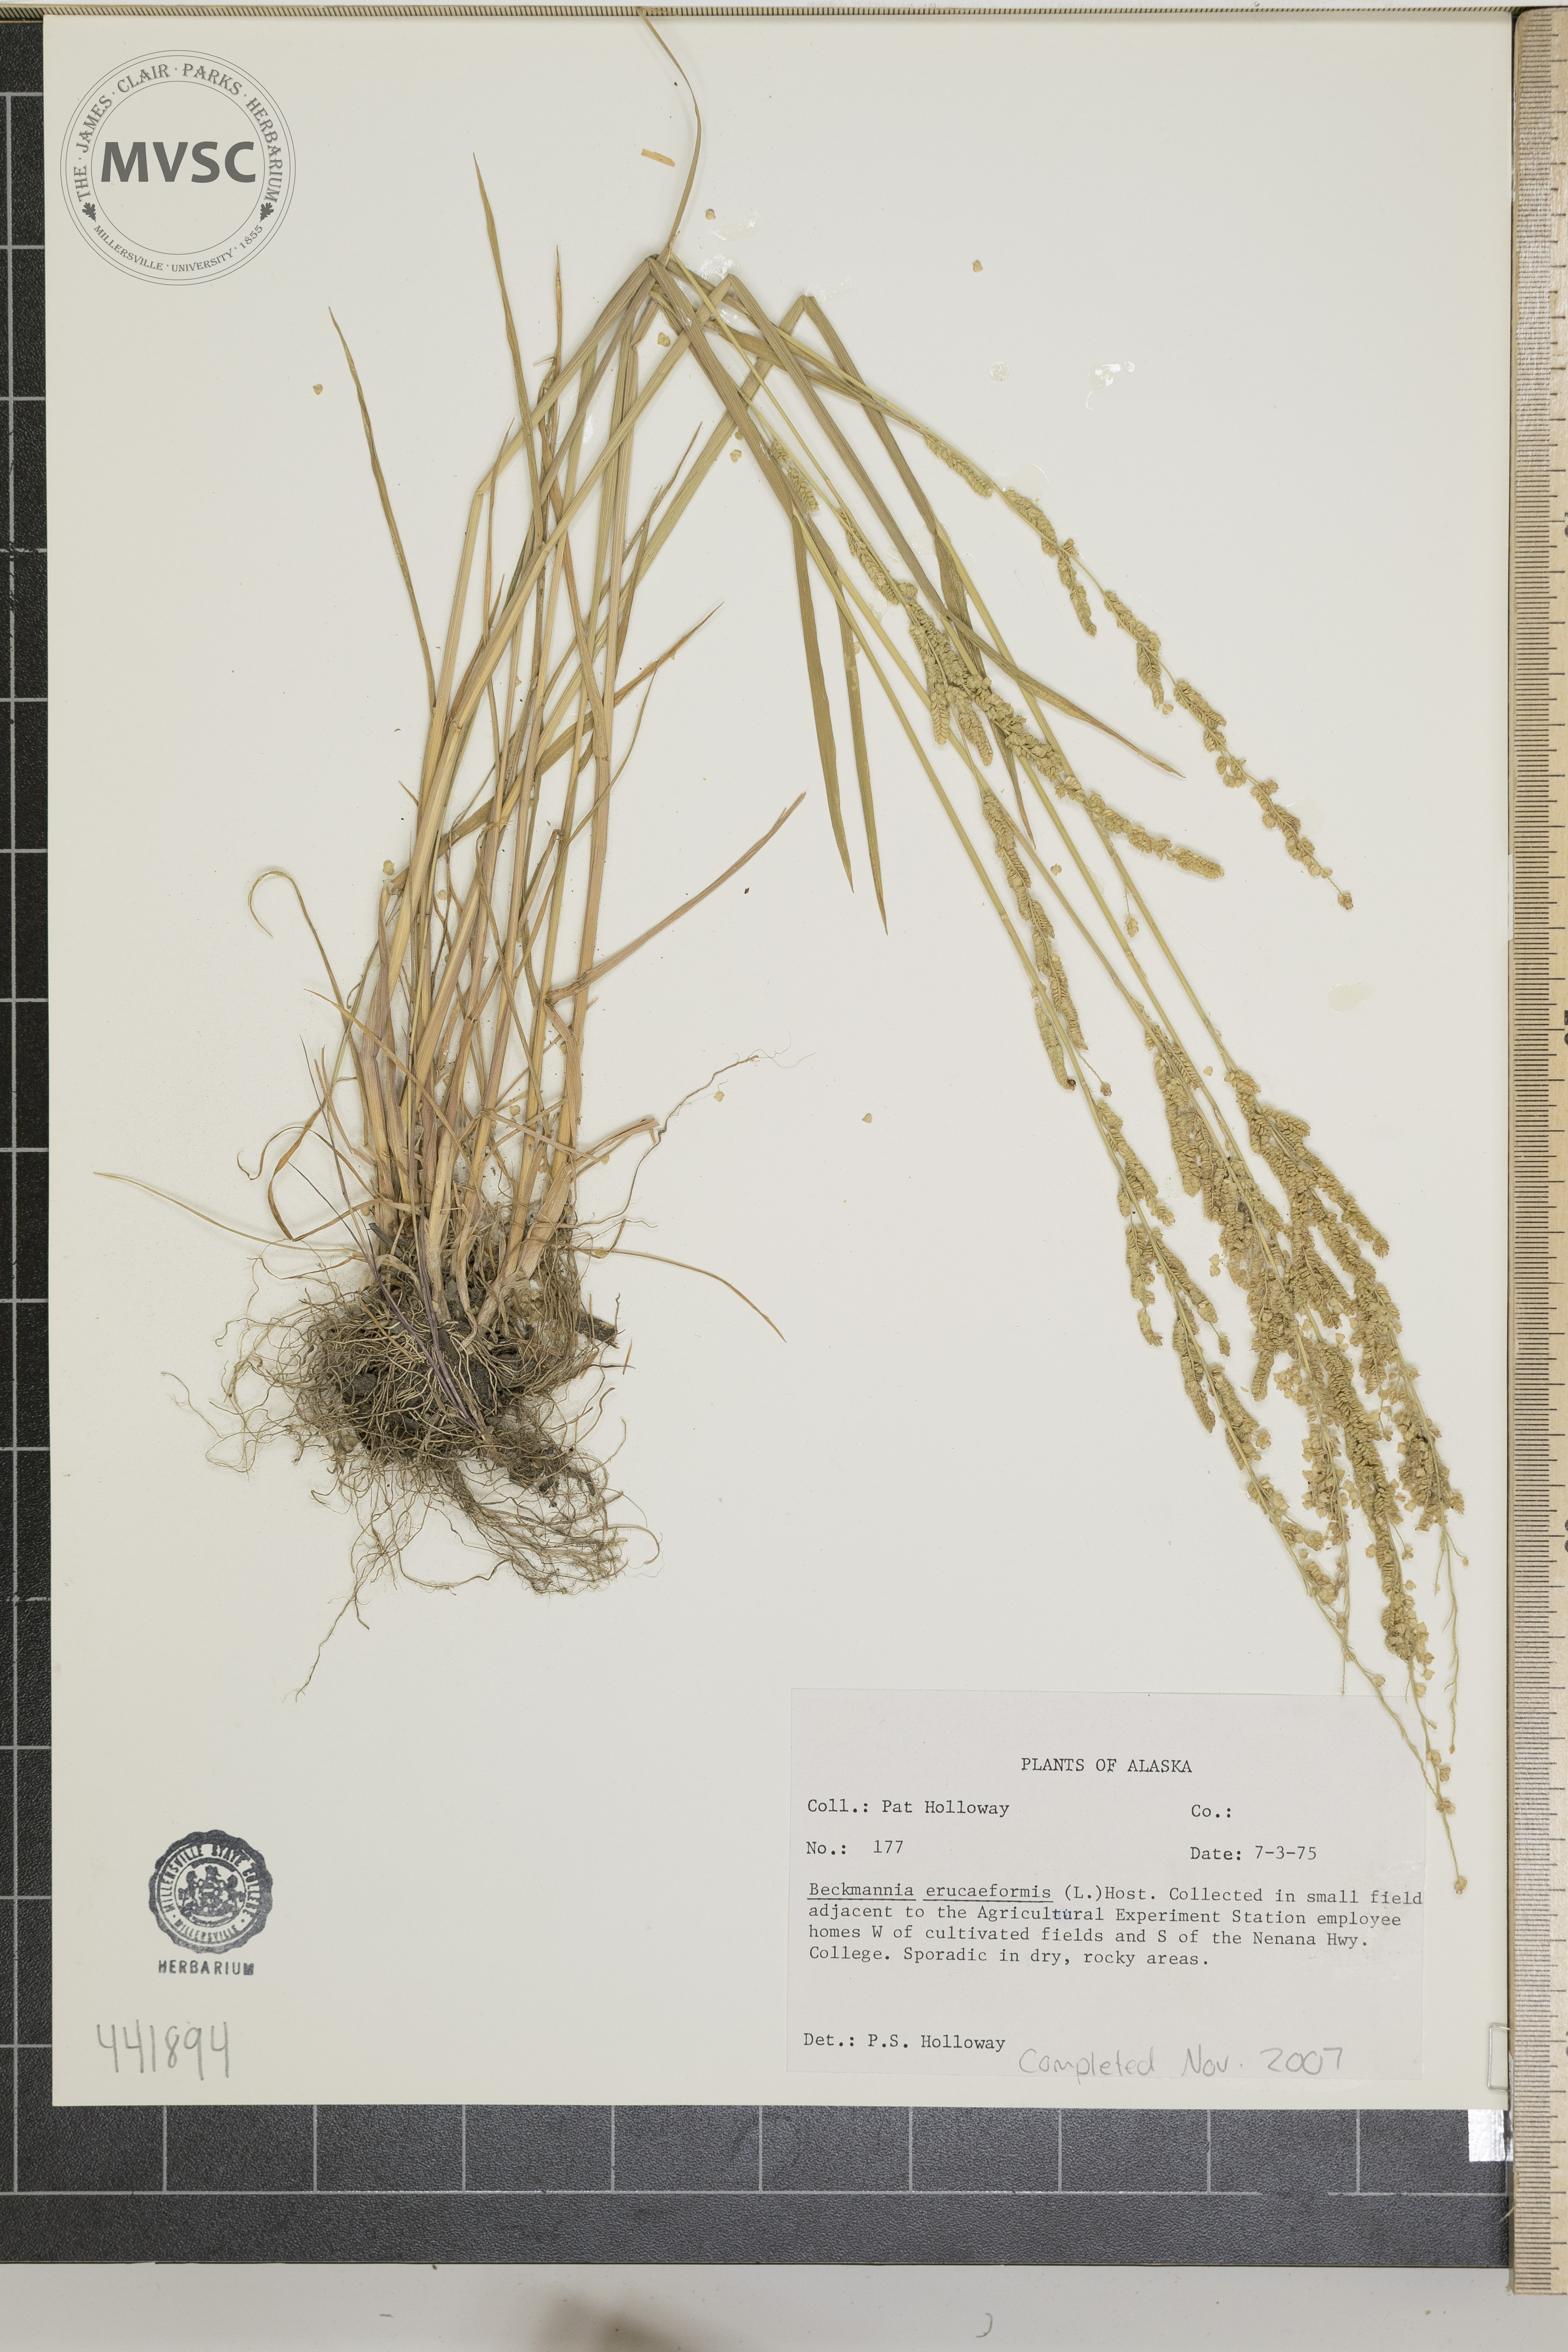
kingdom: Plantae
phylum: Tracheophyta
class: Liliopsida
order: Poales
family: Poaceae
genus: Beckmannia
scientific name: Beckmannia eruciformis
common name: European slough-grass
